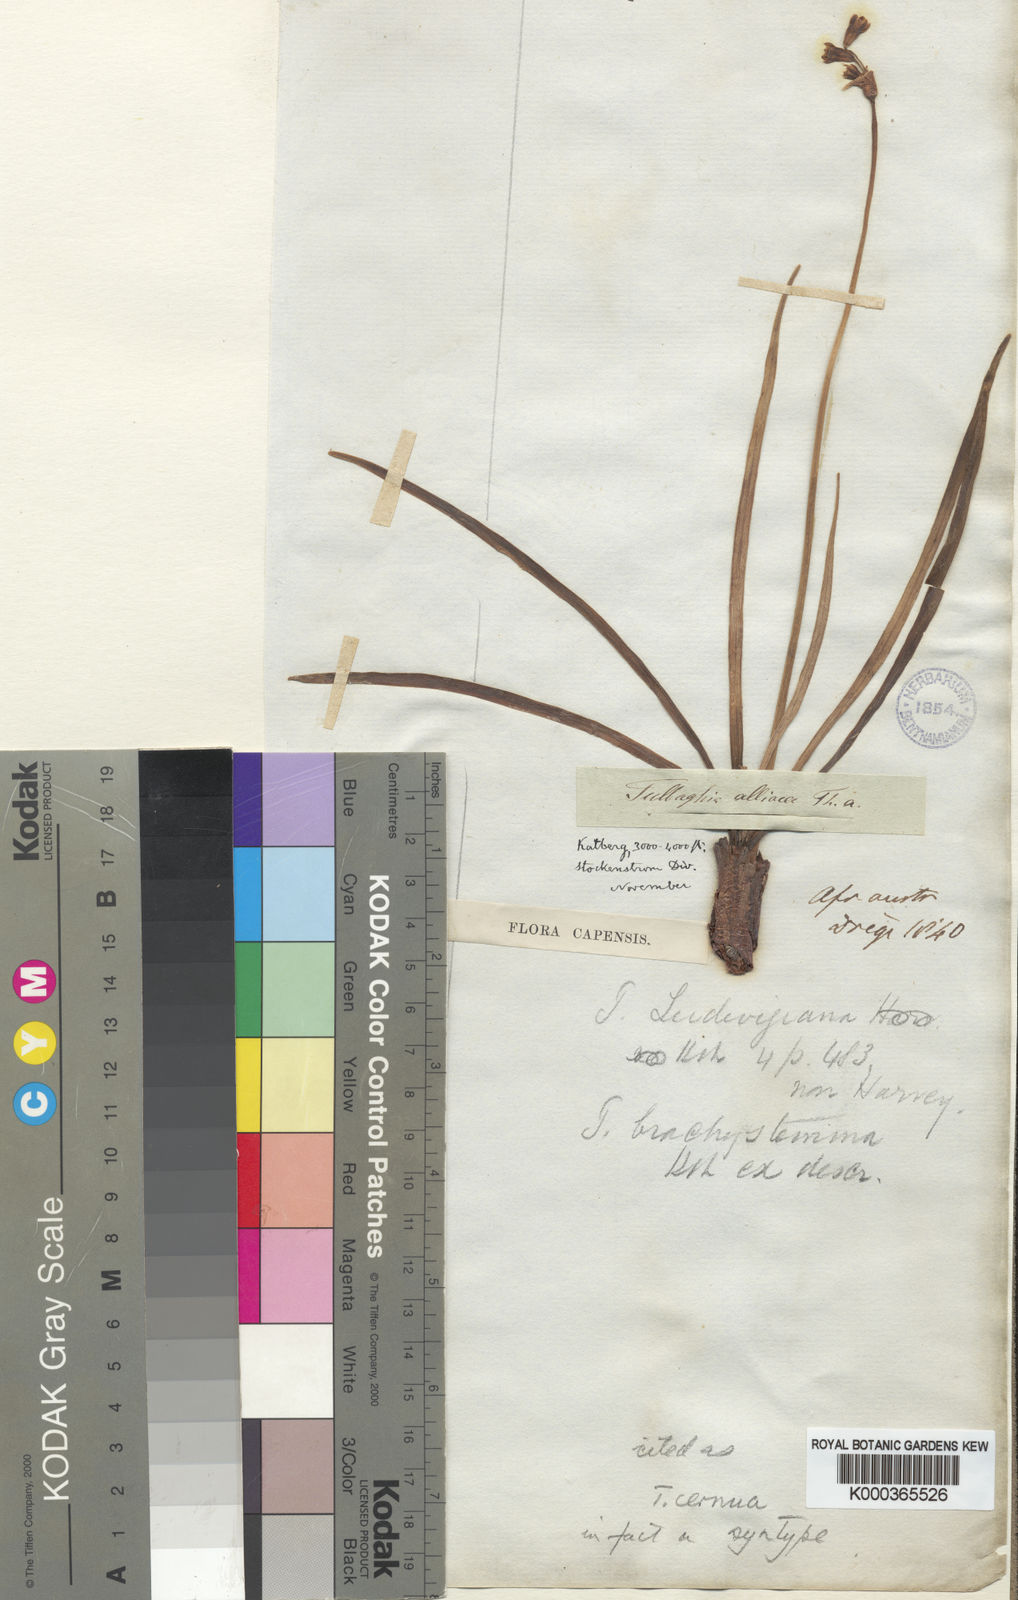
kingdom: Plantae
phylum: Tracheophyta
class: Liliopsida
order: Asparagales
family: Amaryllidaceae
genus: Tulbaghia
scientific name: Tulbaghia cernua
